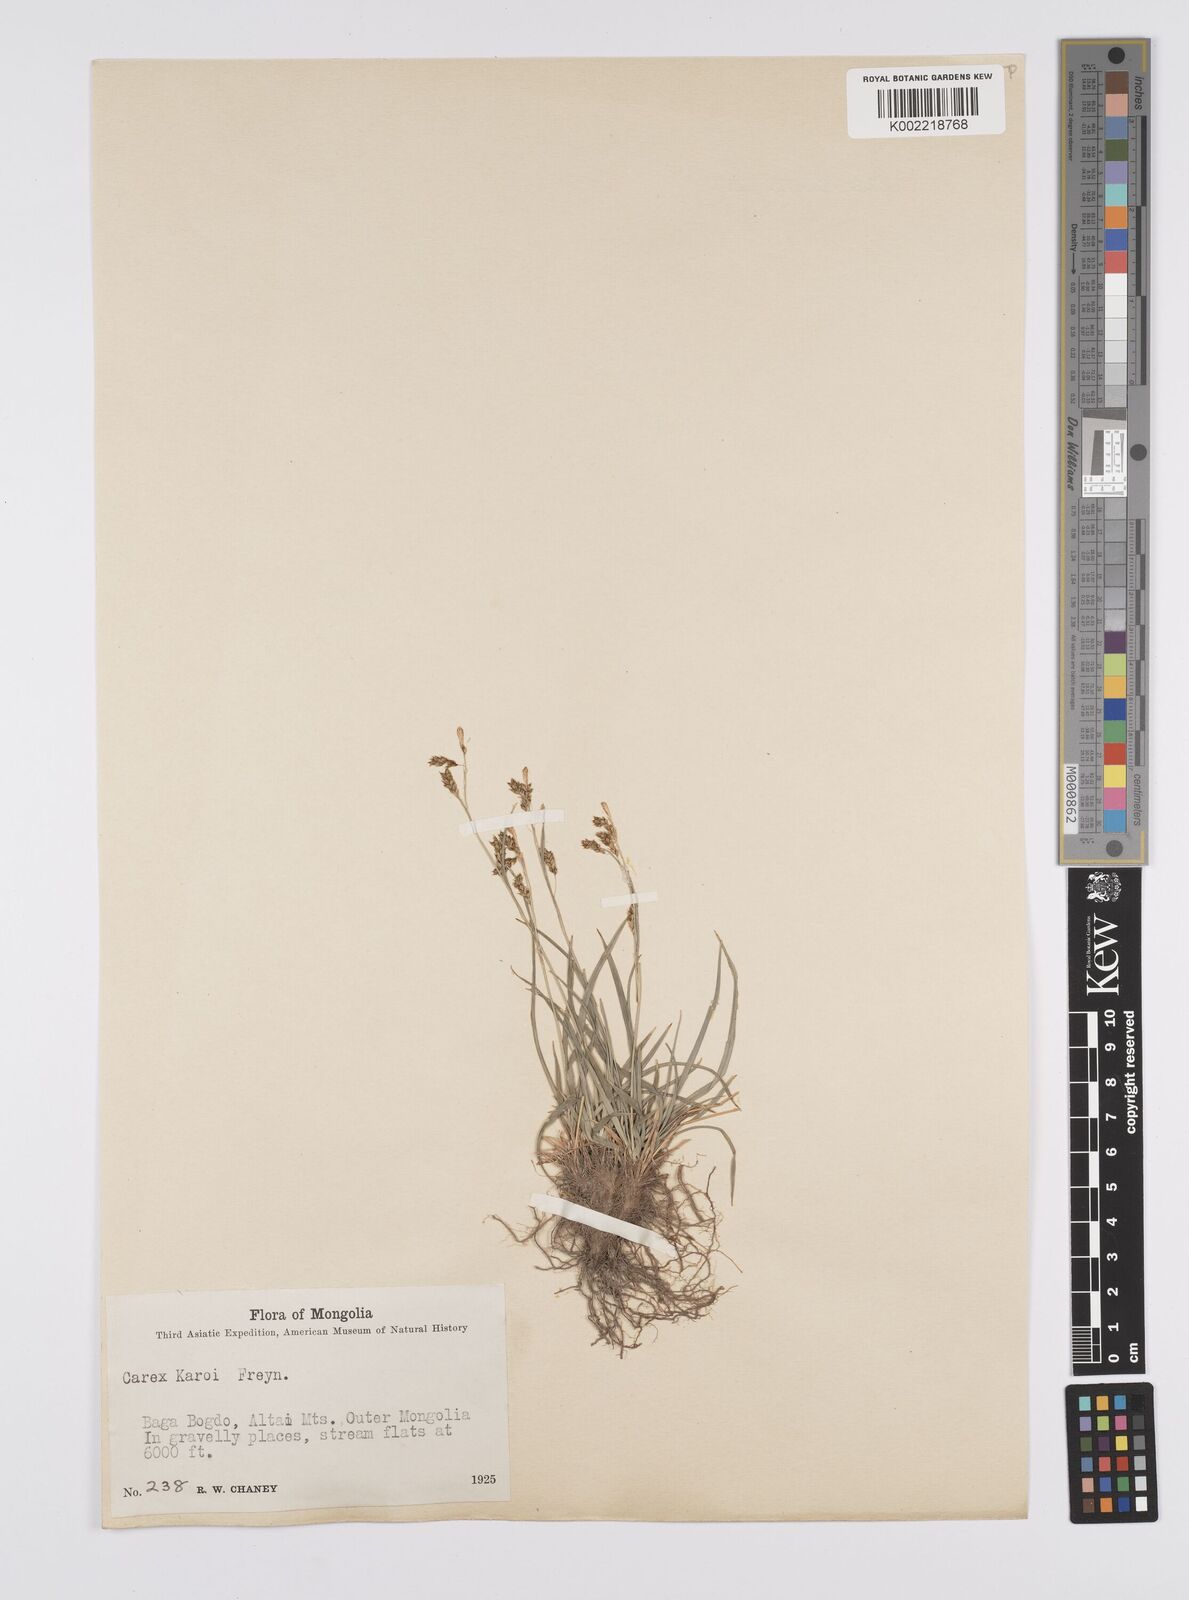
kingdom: Plantae
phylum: Tracheophyta
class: Liliopsida
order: Poales
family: Cyperaceae
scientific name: Cyperaceae
